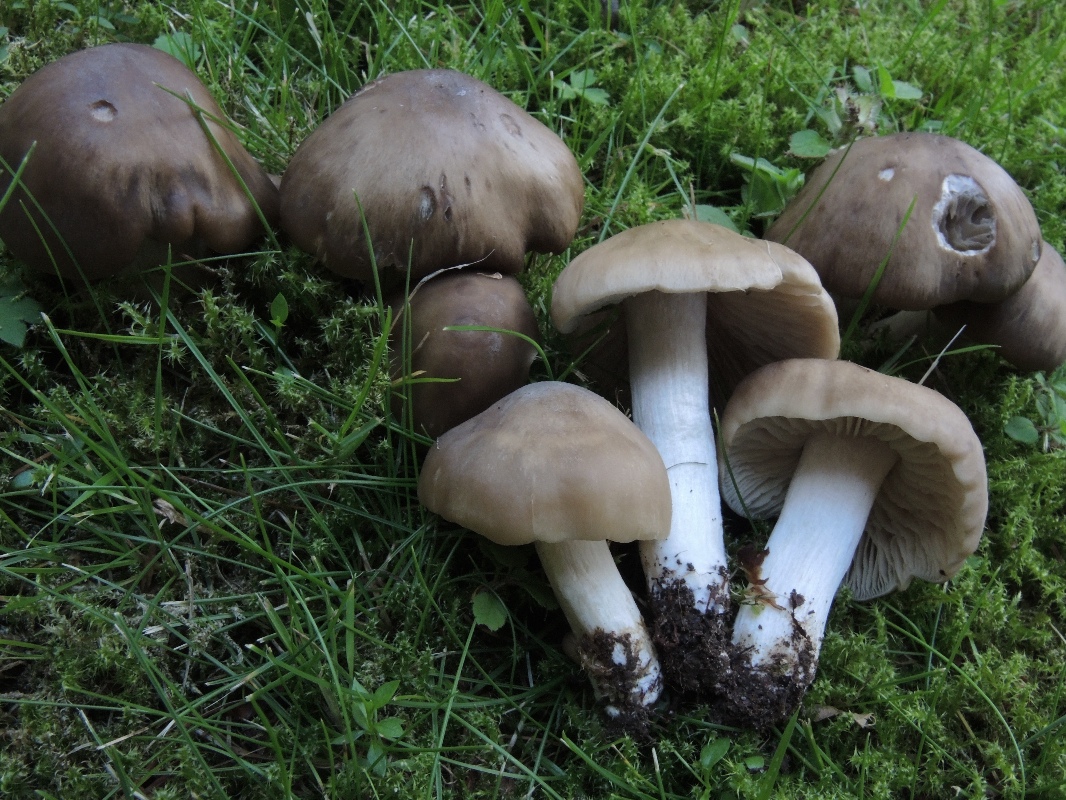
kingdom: Fungi
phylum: Basidiomycota
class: Agaricomycetes
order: Agaricales
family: Entolomataceae
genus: Entoloma
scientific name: Entoloma lividoalbum
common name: lysstokket rødblad
